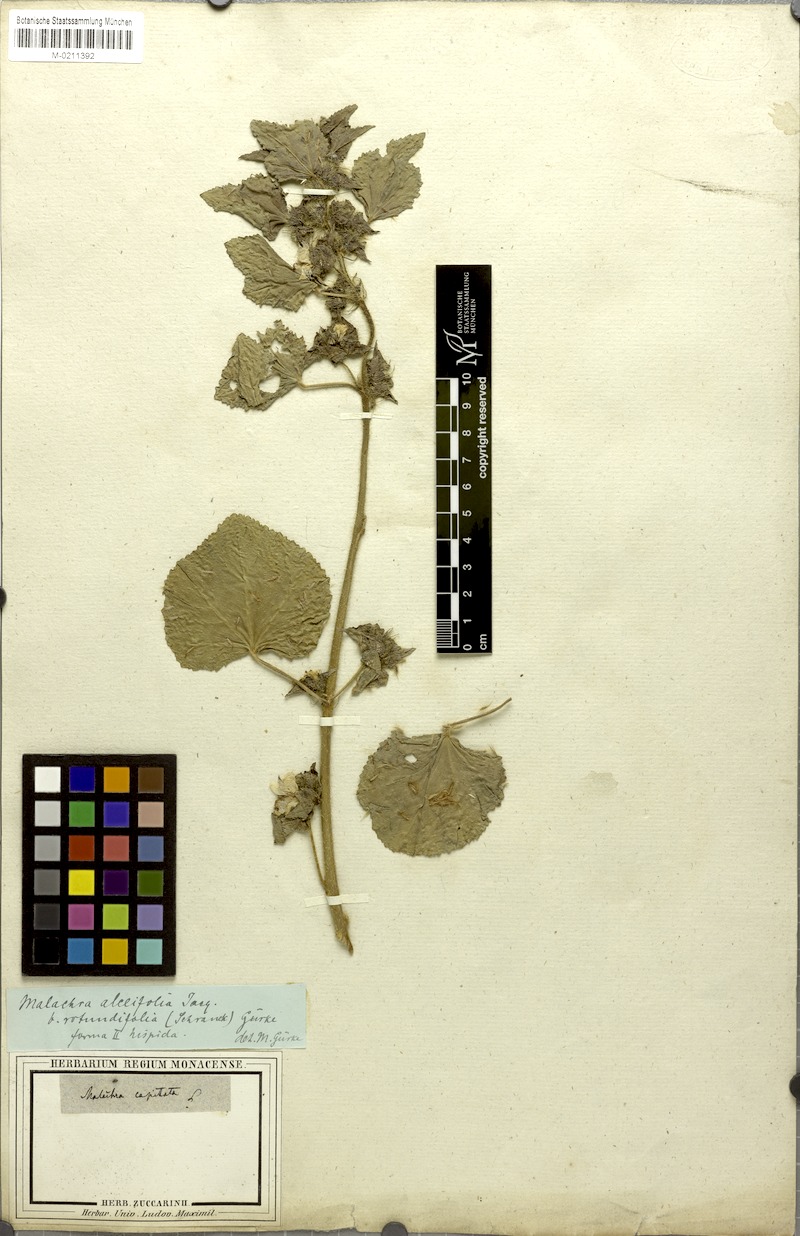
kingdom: Plantae
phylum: Tracheophyta
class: Magnoliopsida
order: Malvales
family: Malvaceae
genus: Malachra
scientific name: Malachra alceifolia
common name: Yellow leafbract
